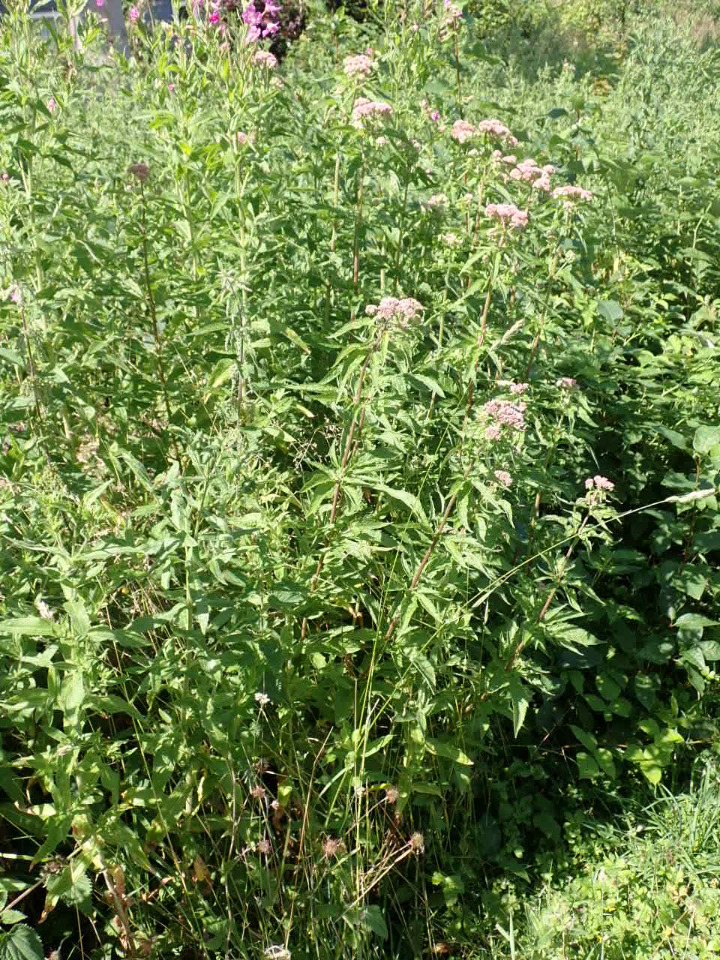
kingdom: Plantae
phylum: Tracheophyta
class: Magnoliopsida
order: Asterales
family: Asteraceae
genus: Eupatorium
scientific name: Eupatorium cannabinum
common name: Hjortetrøst
